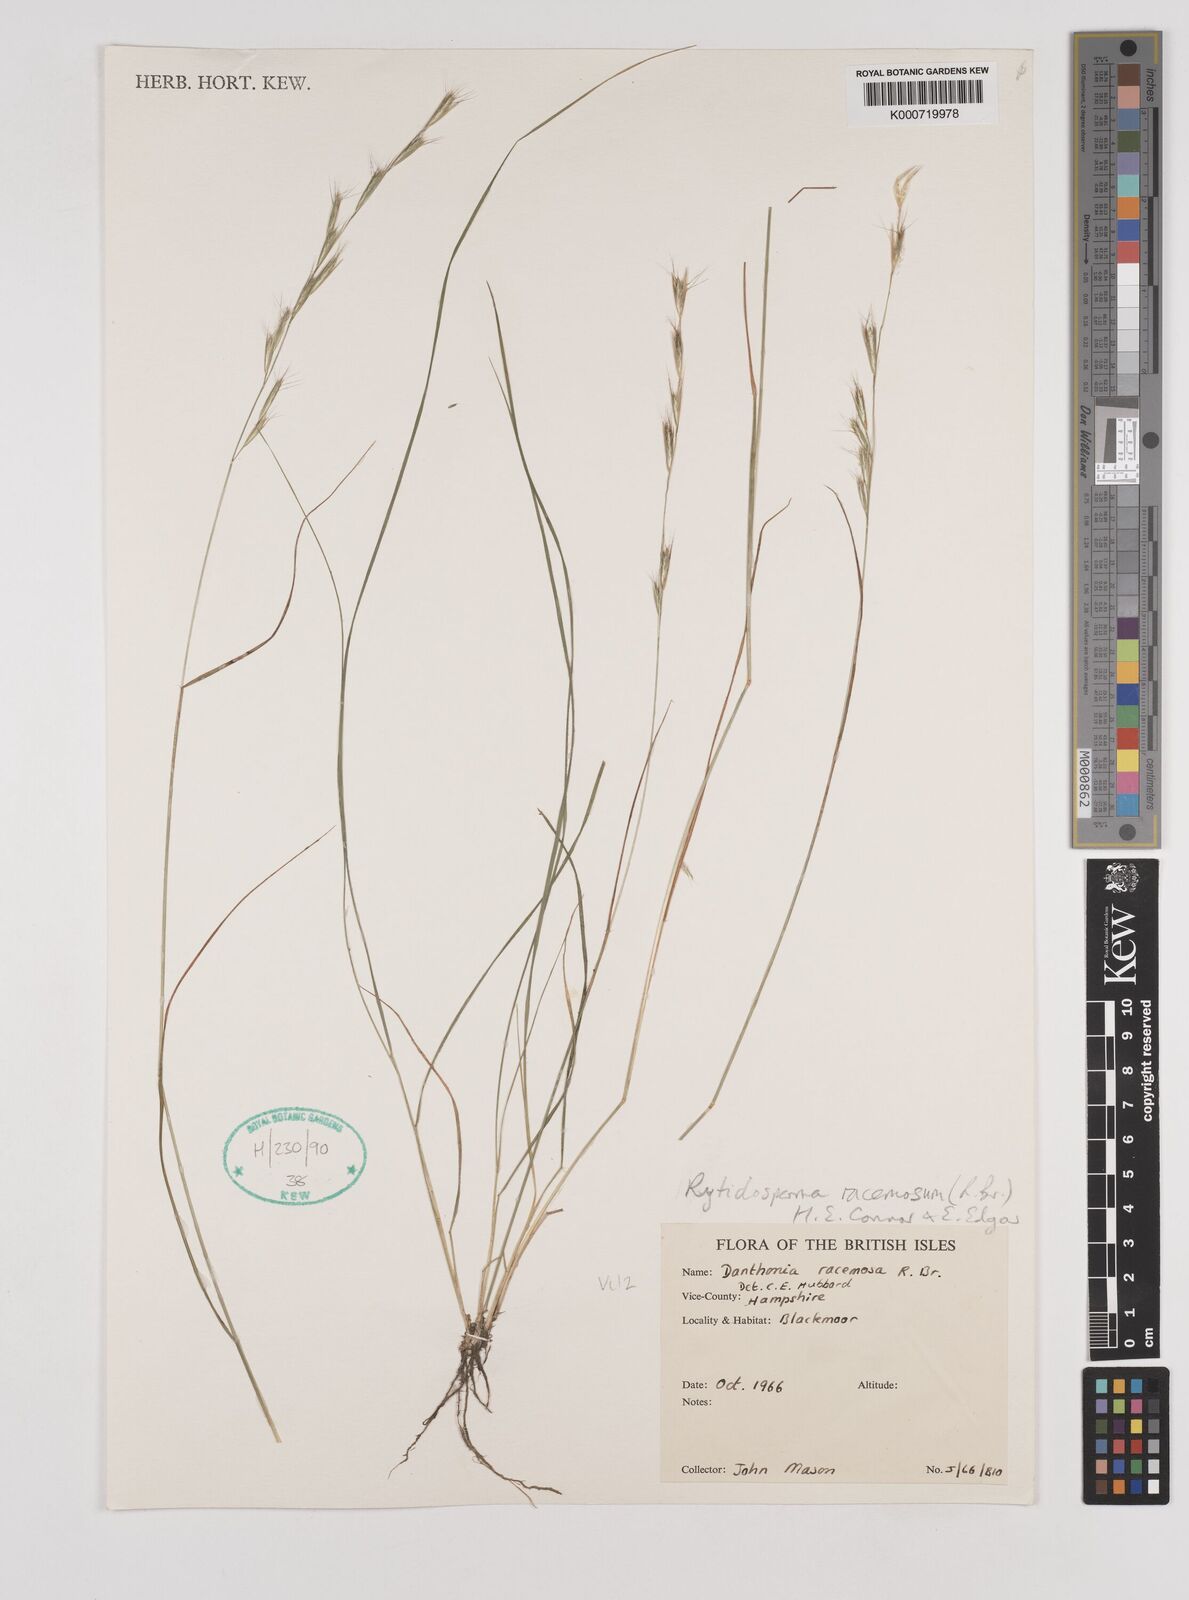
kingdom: Plantae
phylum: Tracheophyta
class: Liliopsida
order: Poales
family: Poaceae
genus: Rytidosperma
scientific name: Rytidosperma racemosum
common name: Wallaby-grass
